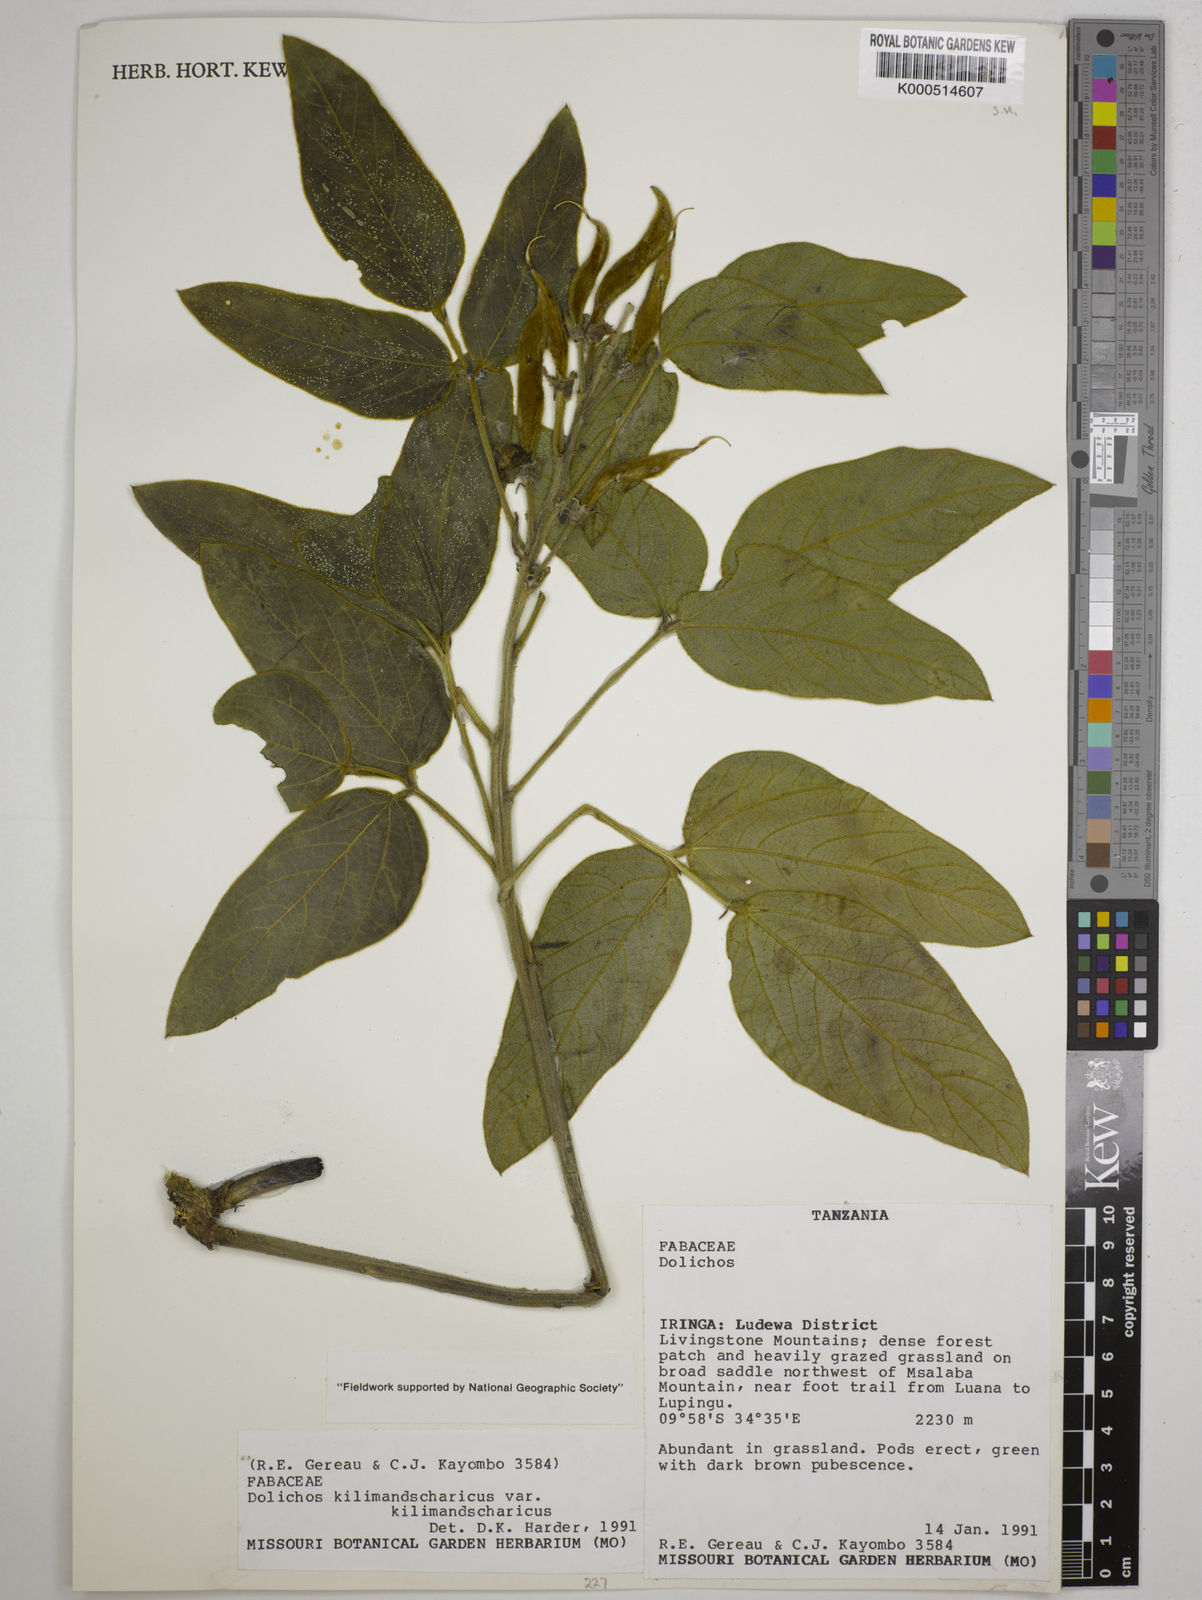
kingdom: Plantae
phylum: Tracheophyta
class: Magnoliopsida
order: Fabales
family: Fabaceae
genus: Dolichos
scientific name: Dolichos kilimandscharicus
